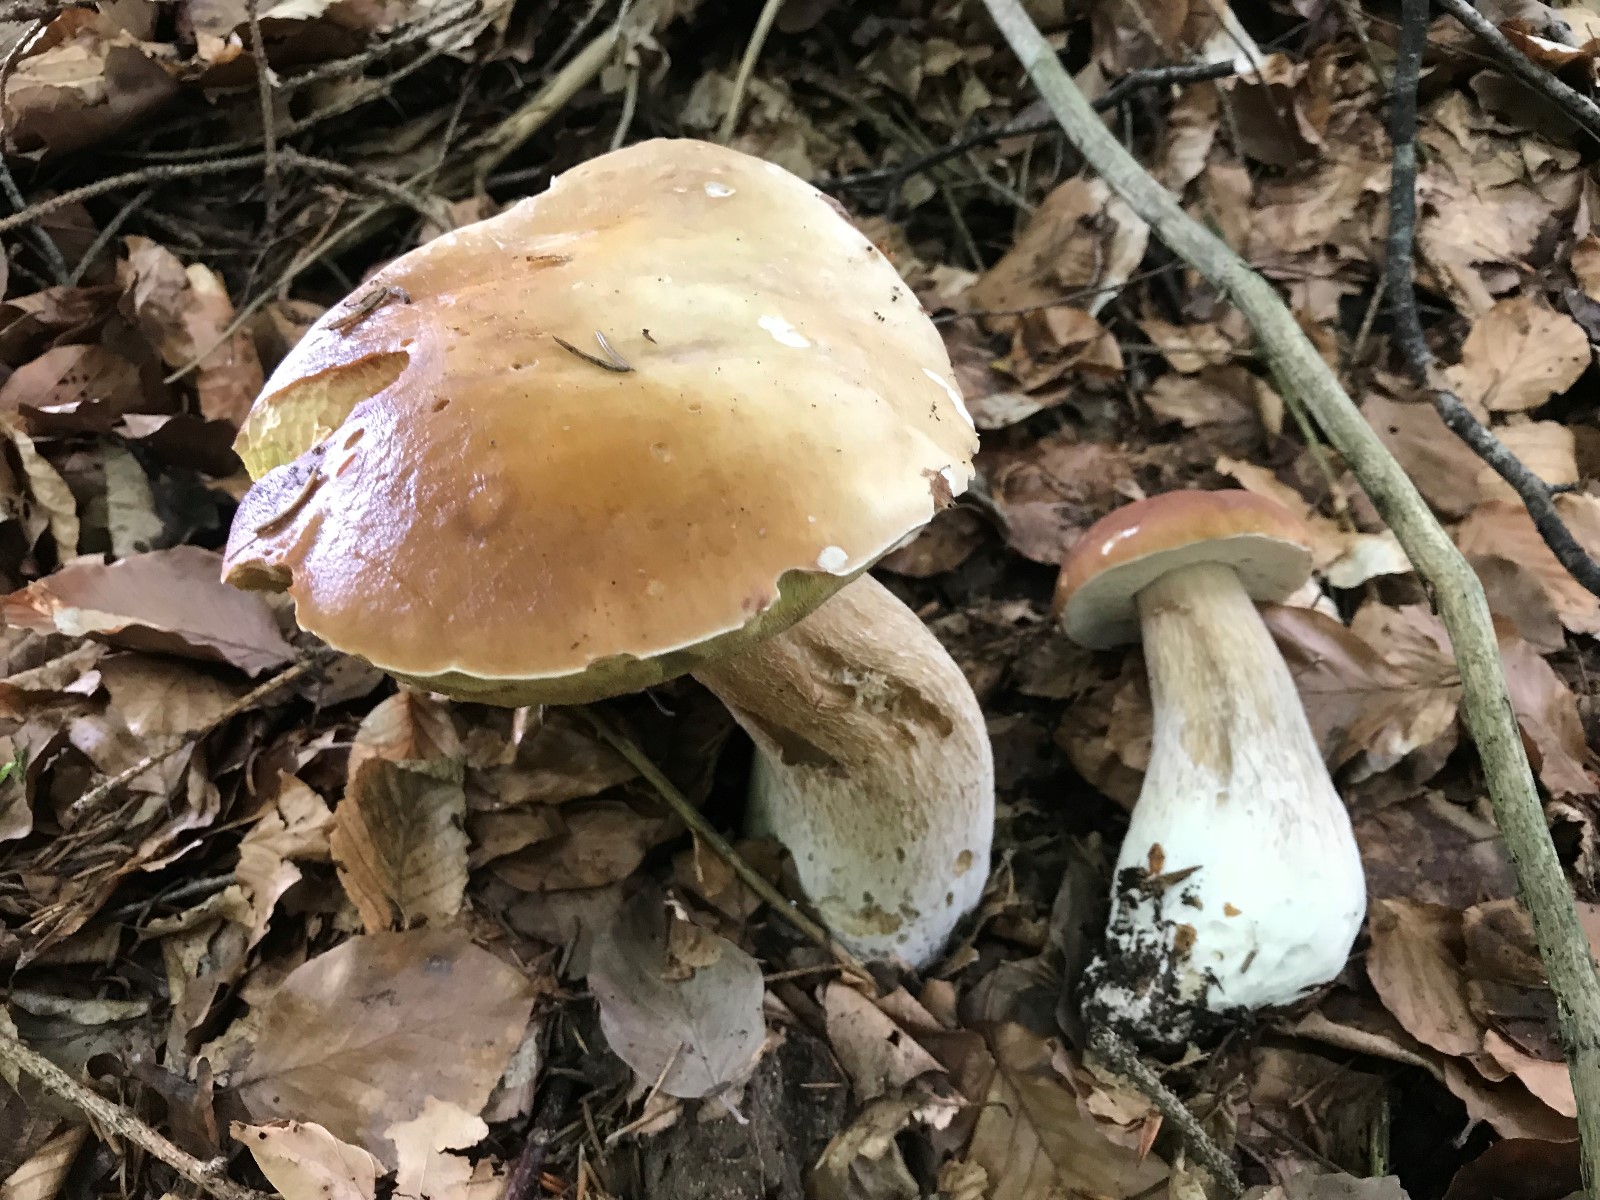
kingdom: Fungi
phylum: Basidiomycota
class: Agaricomycetes
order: Boletales
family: Boletaceae
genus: Boletus
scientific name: Boletus edulis
